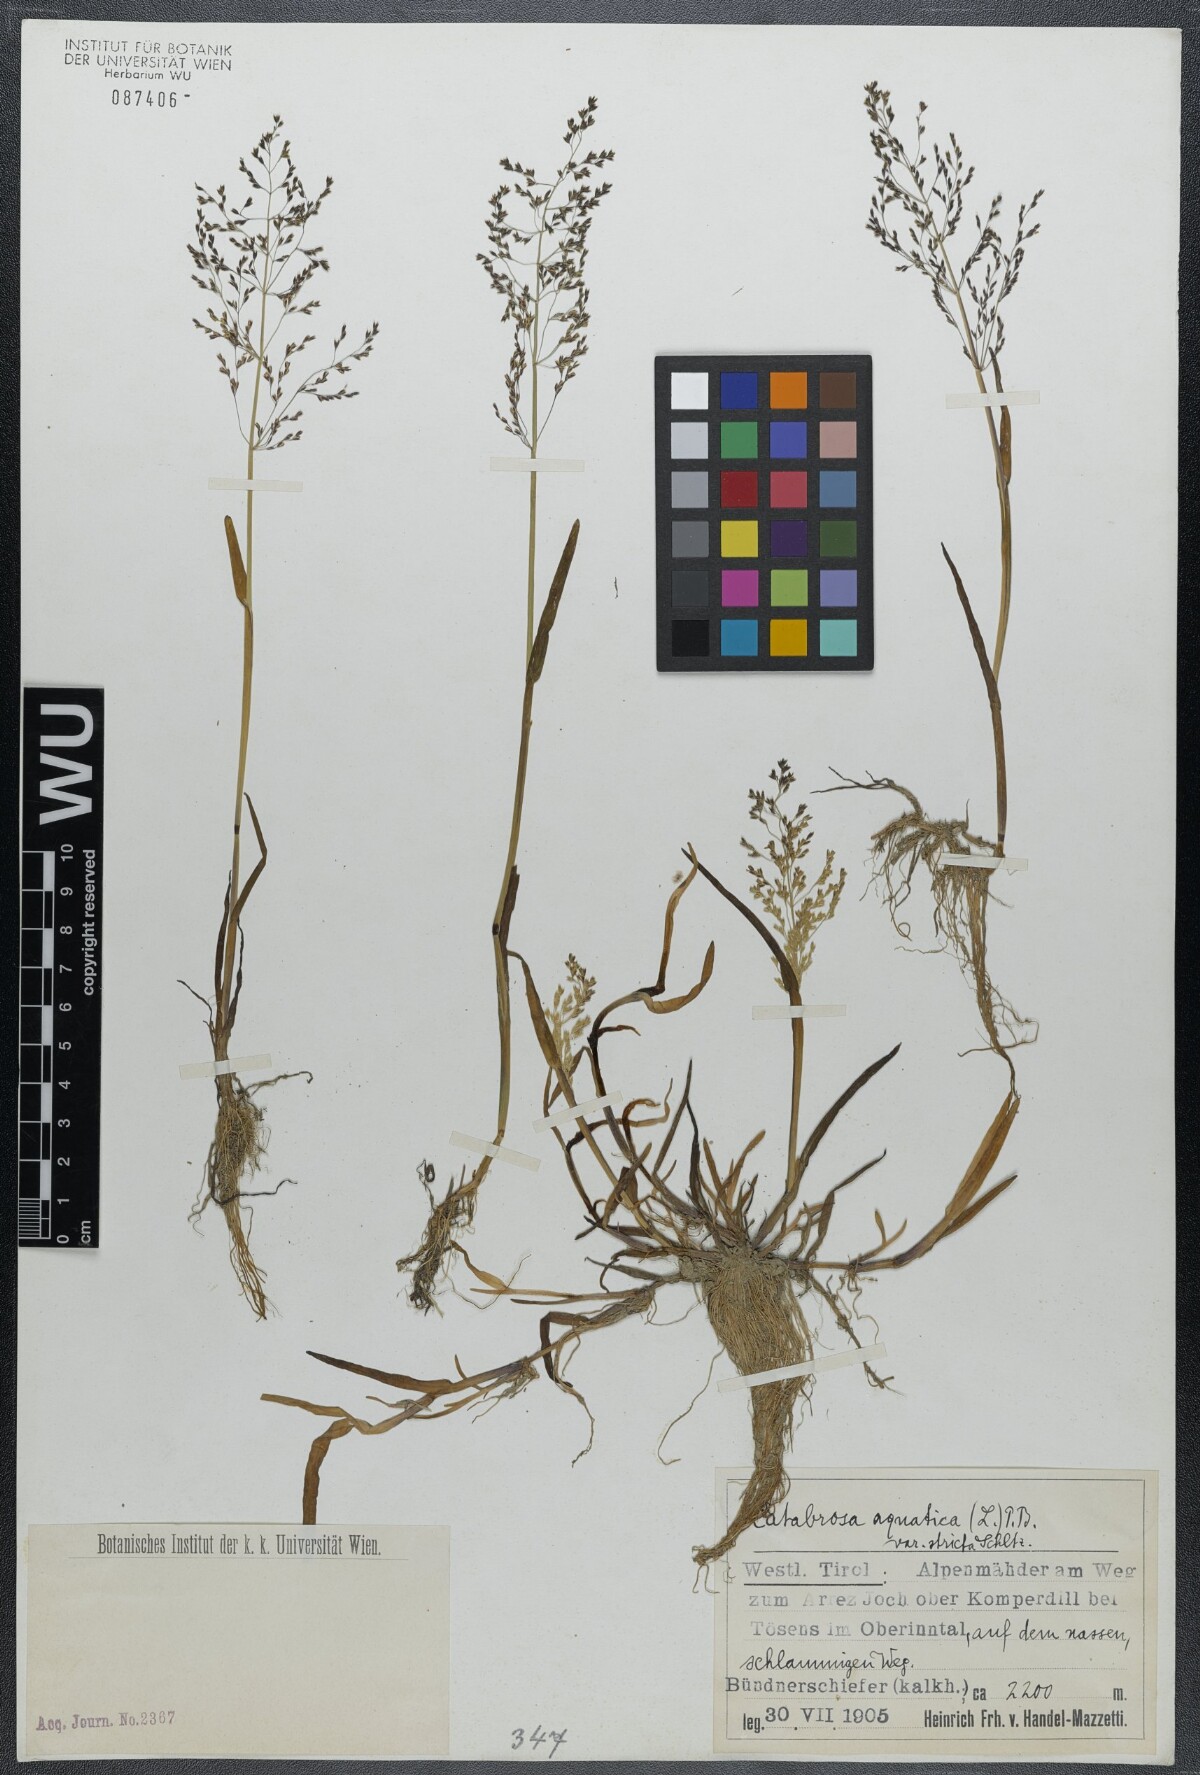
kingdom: Plantae
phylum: Tracheophyta
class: Liliopsida
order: Poales
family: Poaceae
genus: Catabrosa
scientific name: Catabrosa aquatica
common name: Whorl-grass
